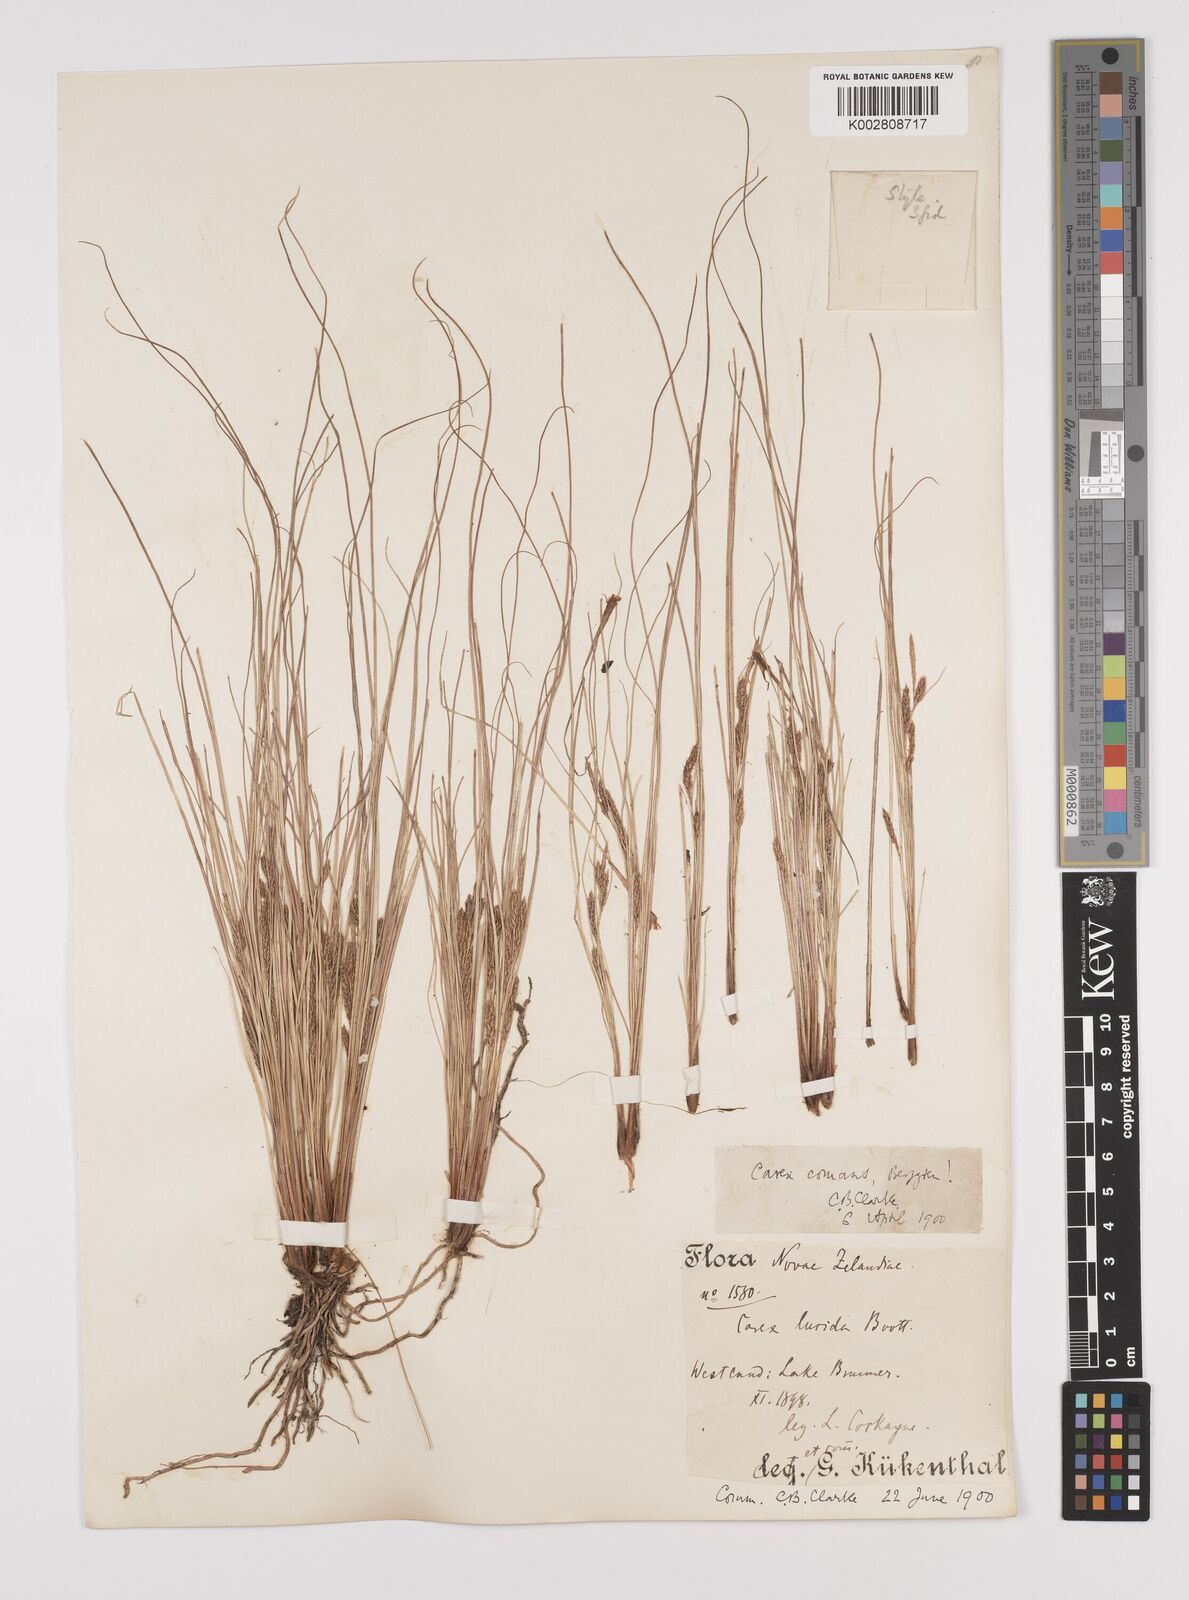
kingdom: Plantae
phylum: Tracheophyta
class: Liliopsida
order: Poales
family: Cyperaceae
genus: Carex
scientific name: Carex comans
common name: Longwood tussock
